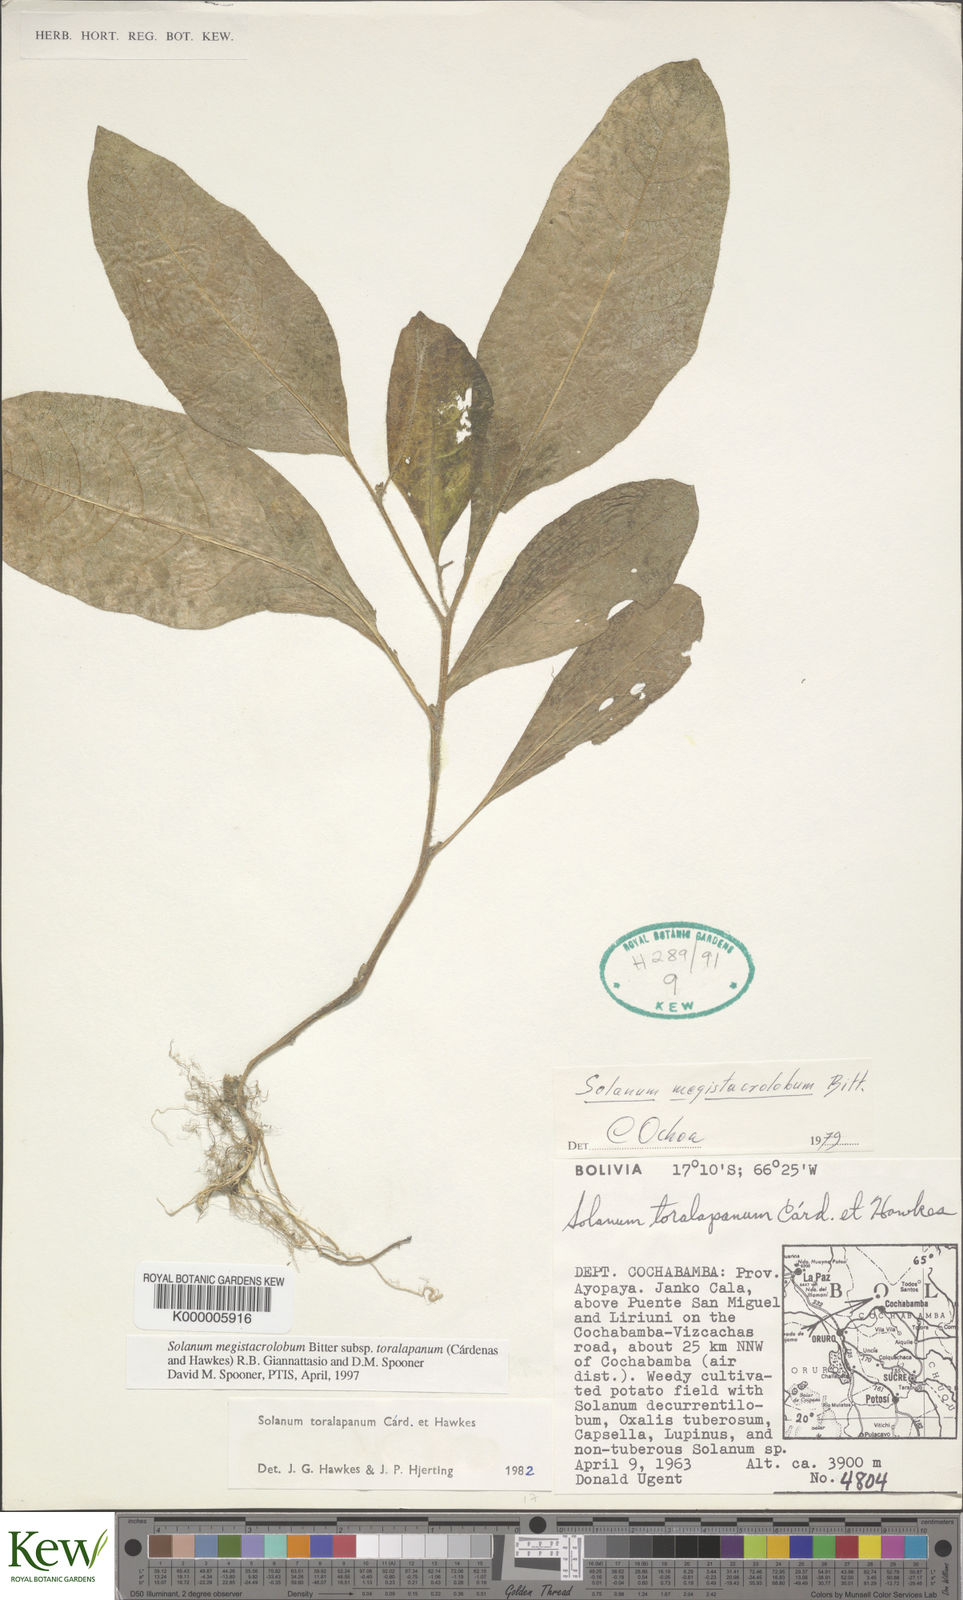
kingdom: Plantae
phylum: Tracheophyta
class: Magnoliopsida
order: Solanales
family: Solanaceae
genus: Solanum
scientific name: Solanum boliviense
